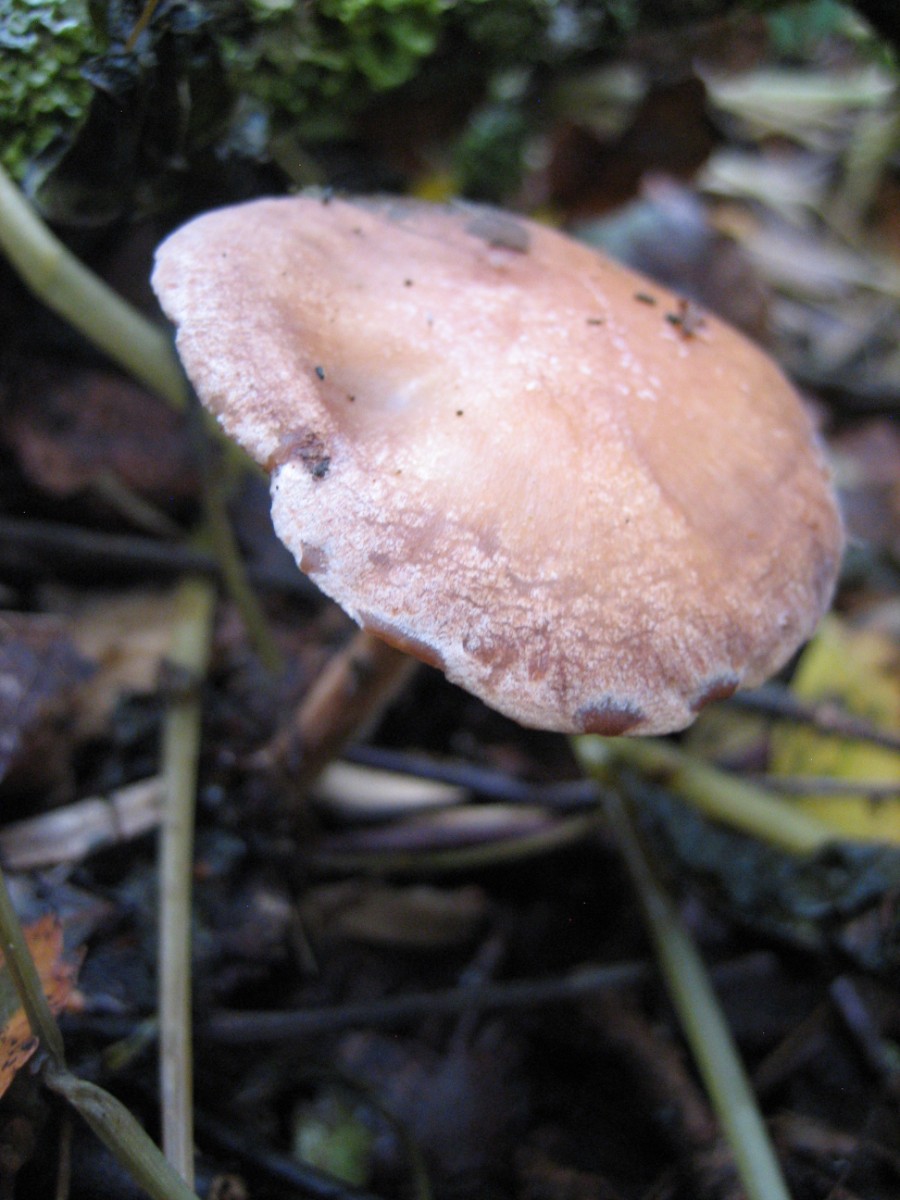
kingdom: Fungi
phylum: Basidiomycota
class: Agaricomycetes
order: Agaricales
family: Omphalotaceae
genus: Collybiopsis
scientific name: Collybiopsis peronata
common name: bestøvlet fladhat
